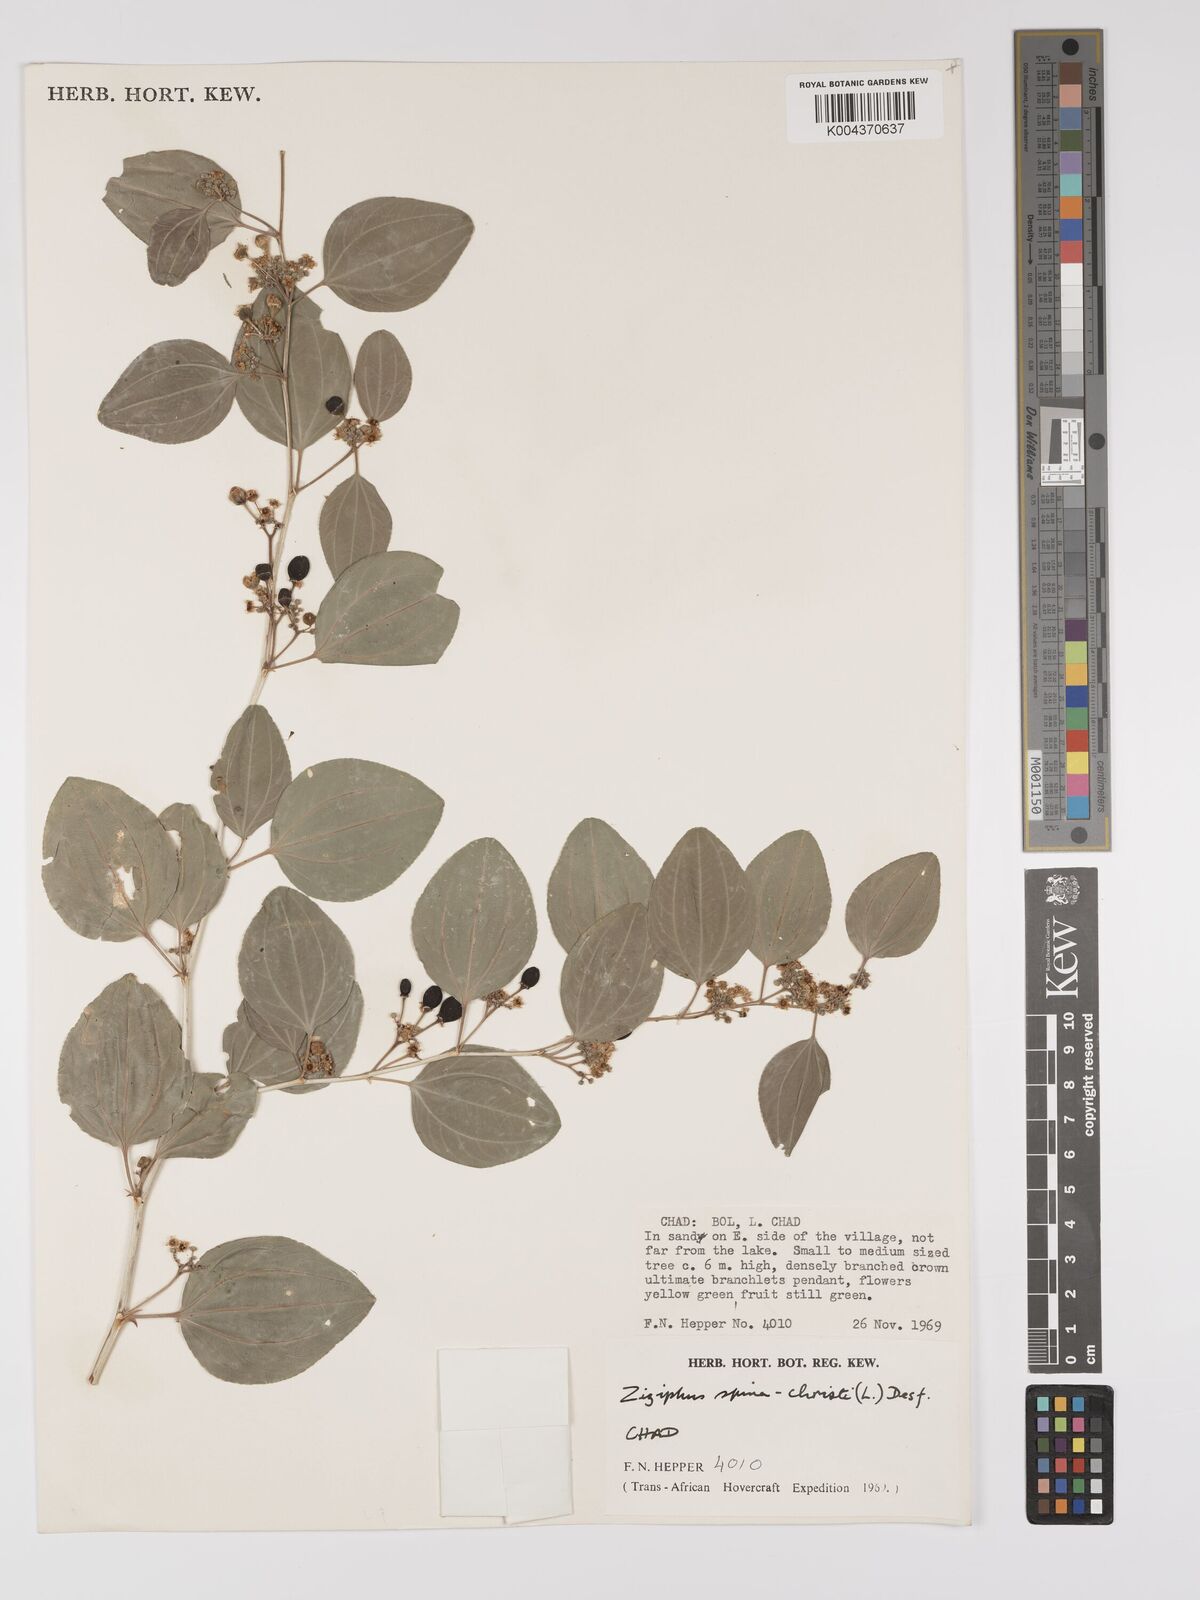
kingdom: Plantae
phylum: Tracheophyta
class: Magnoliopsida
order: Rosales
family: Rhamnaceae
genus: Ziziphus
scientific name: Ziziphus spina-christi
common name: Syrian christ-thorn
